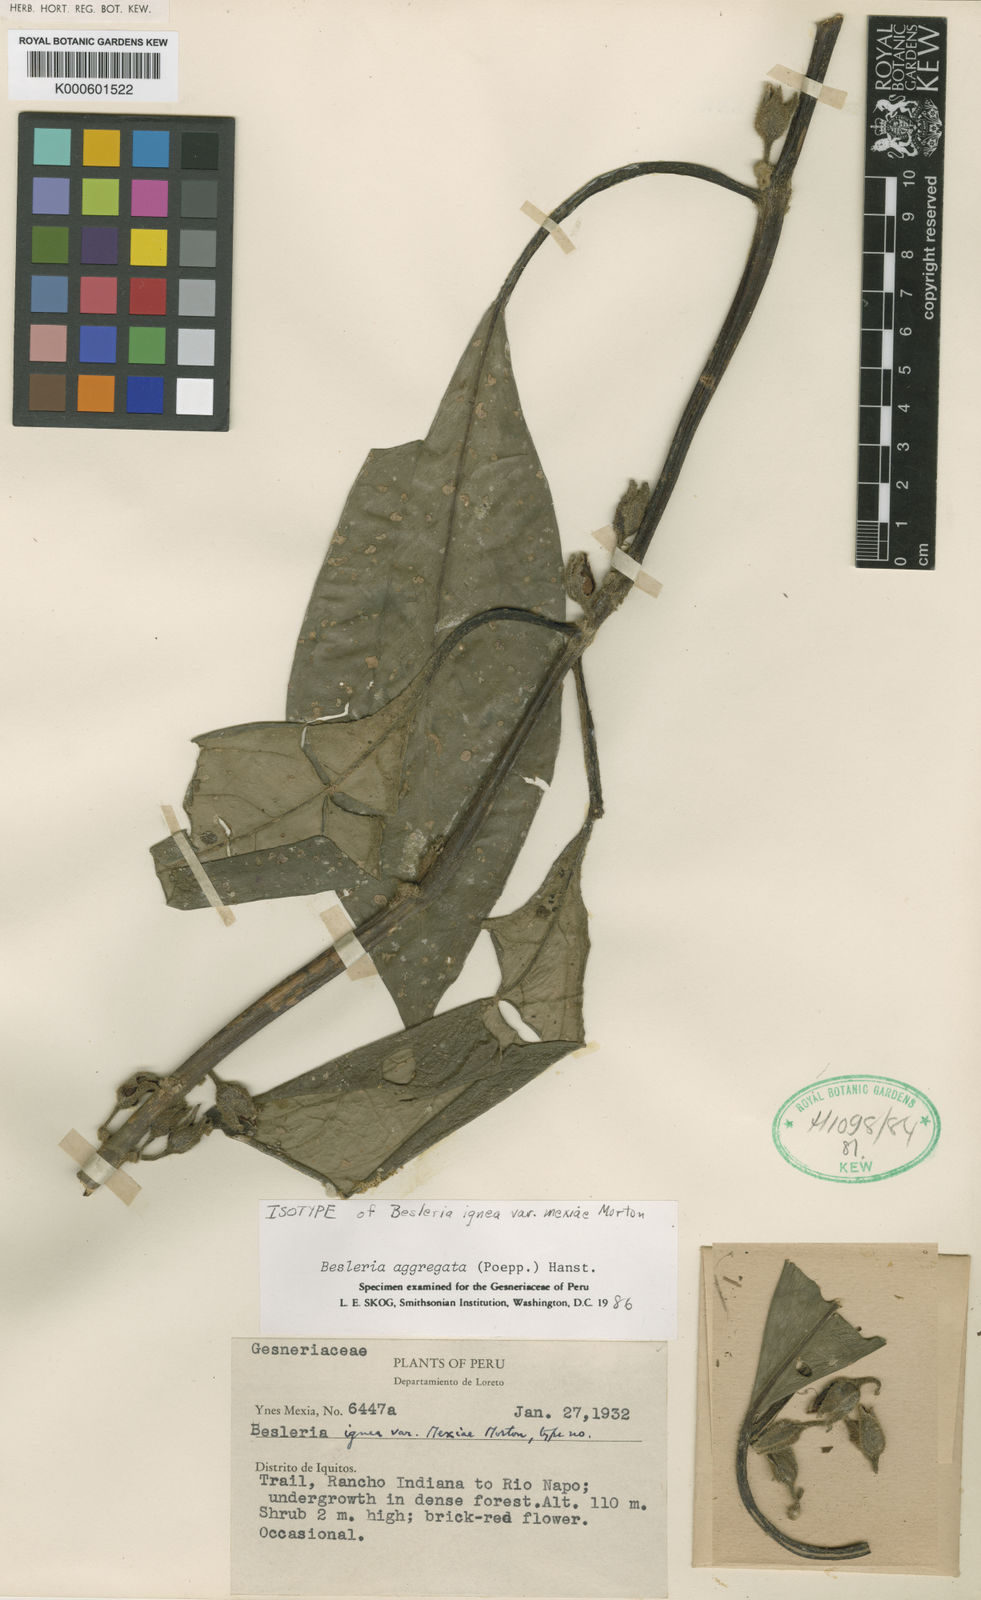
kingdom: Plantae
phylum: Tracheophyta
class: Magnoliopsida
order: Lamiales
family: Gesneriaceae
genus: Besleria
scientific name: Besleria aggregata
